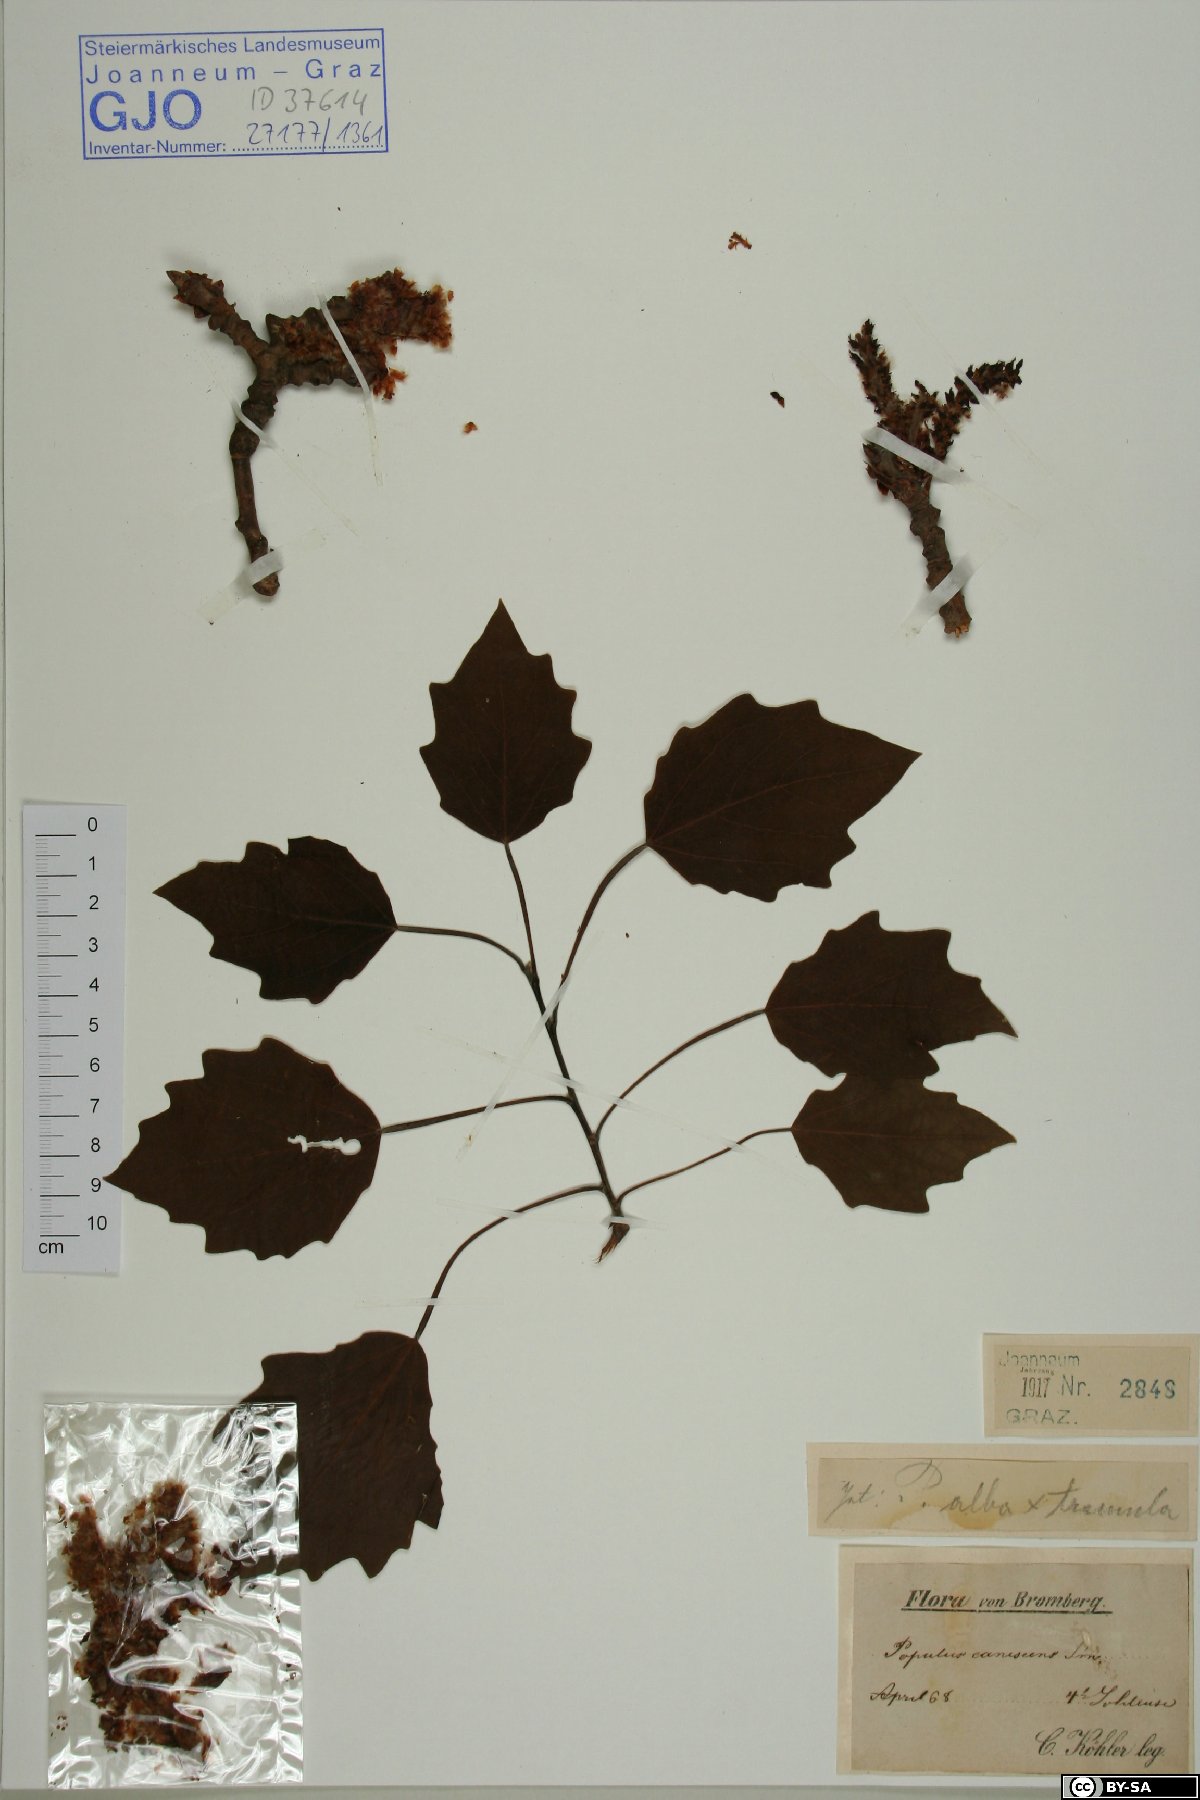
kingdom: Plantae
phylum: Tracheophyta
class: Magnoliopsida
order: Malpighiales
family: Salicaceae
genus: Populus
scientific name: Populus canescens
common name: Gray poplar
